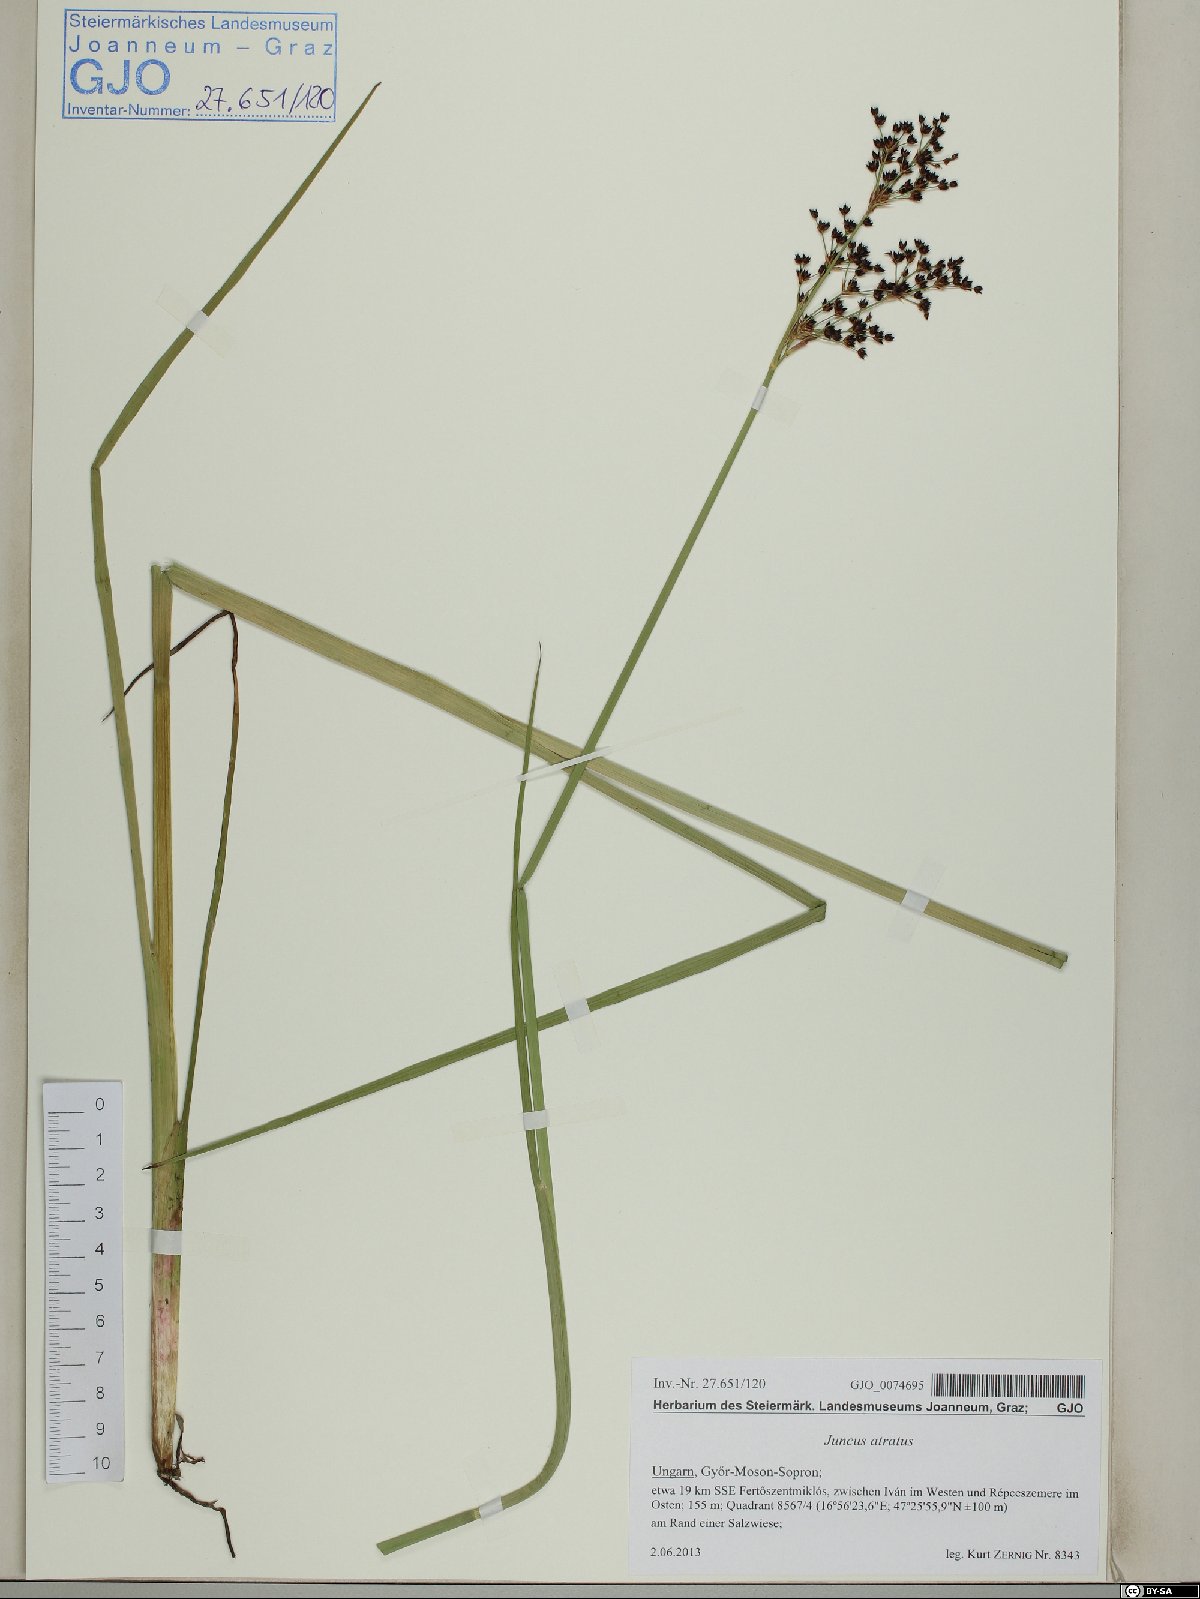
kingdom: Plantae
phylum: Tracheophyta
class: Liliopsida
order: Poales
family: Juncaceae
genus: Juncus
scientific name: Juncus atratus
